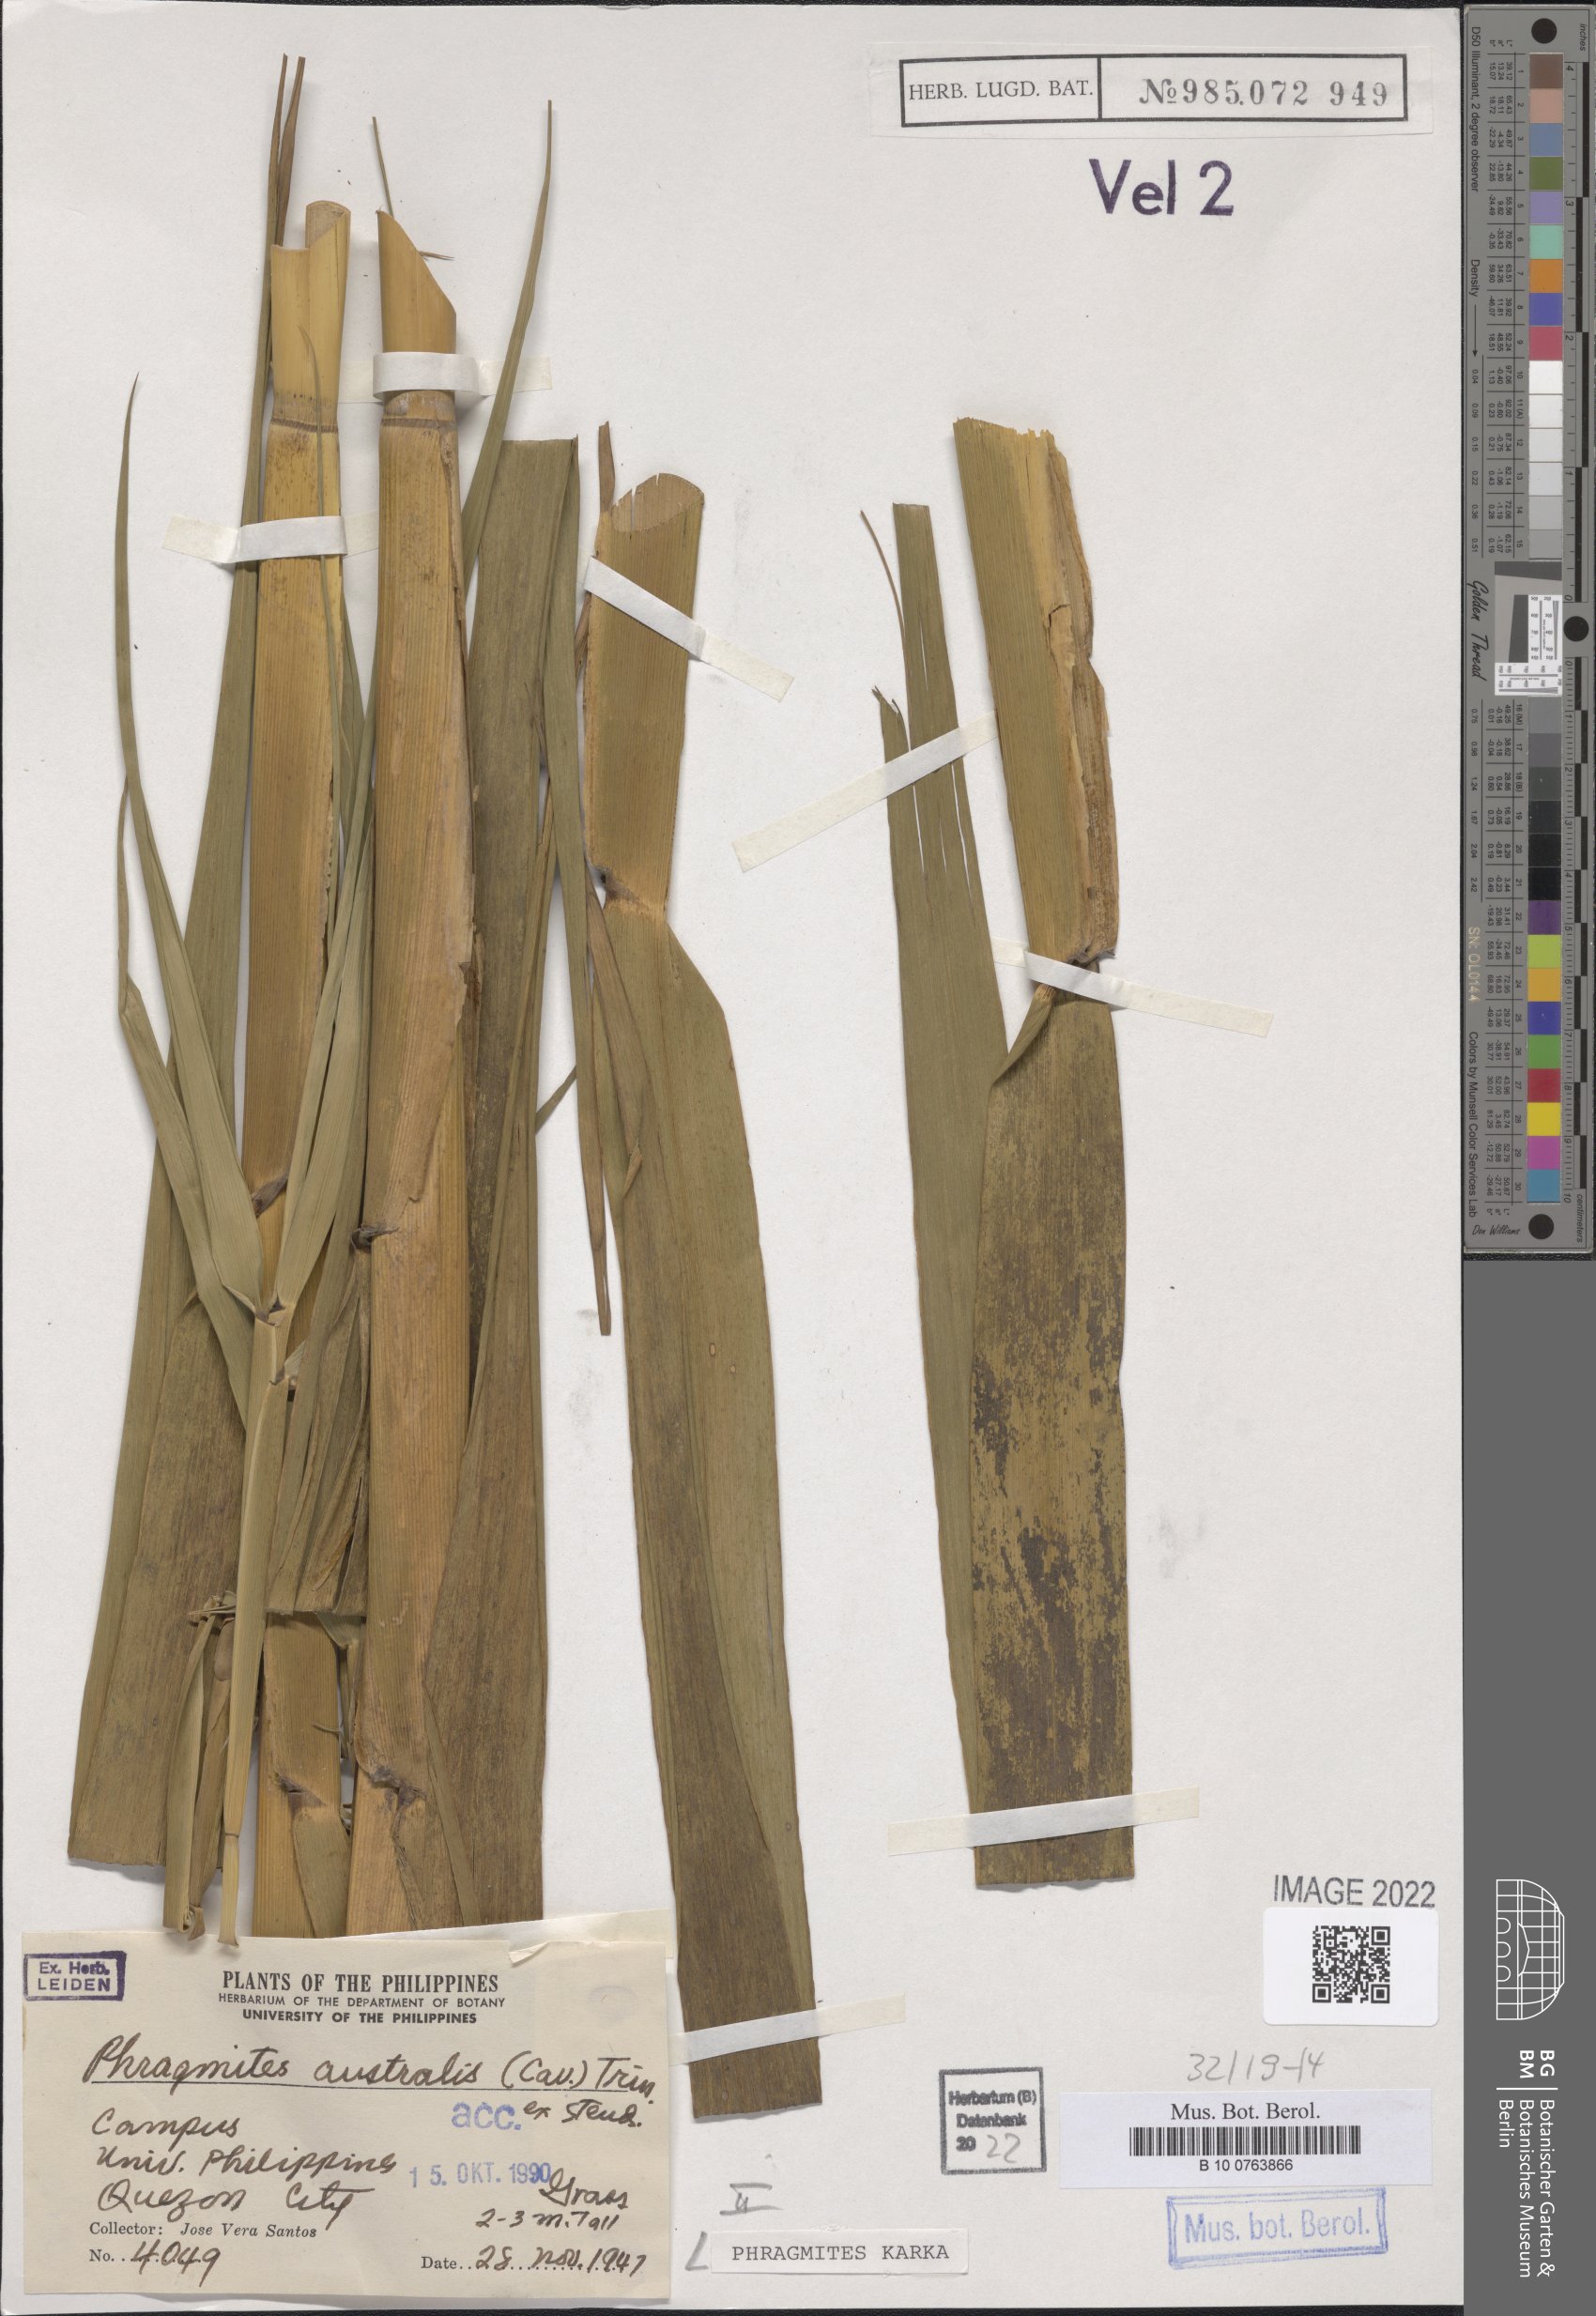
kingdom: Plantae
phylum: Tracheophyta
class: Liliopsida
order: Poales
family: Poaceae
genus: Phragmites
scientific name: Phragmites karka
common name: Tropical reed
